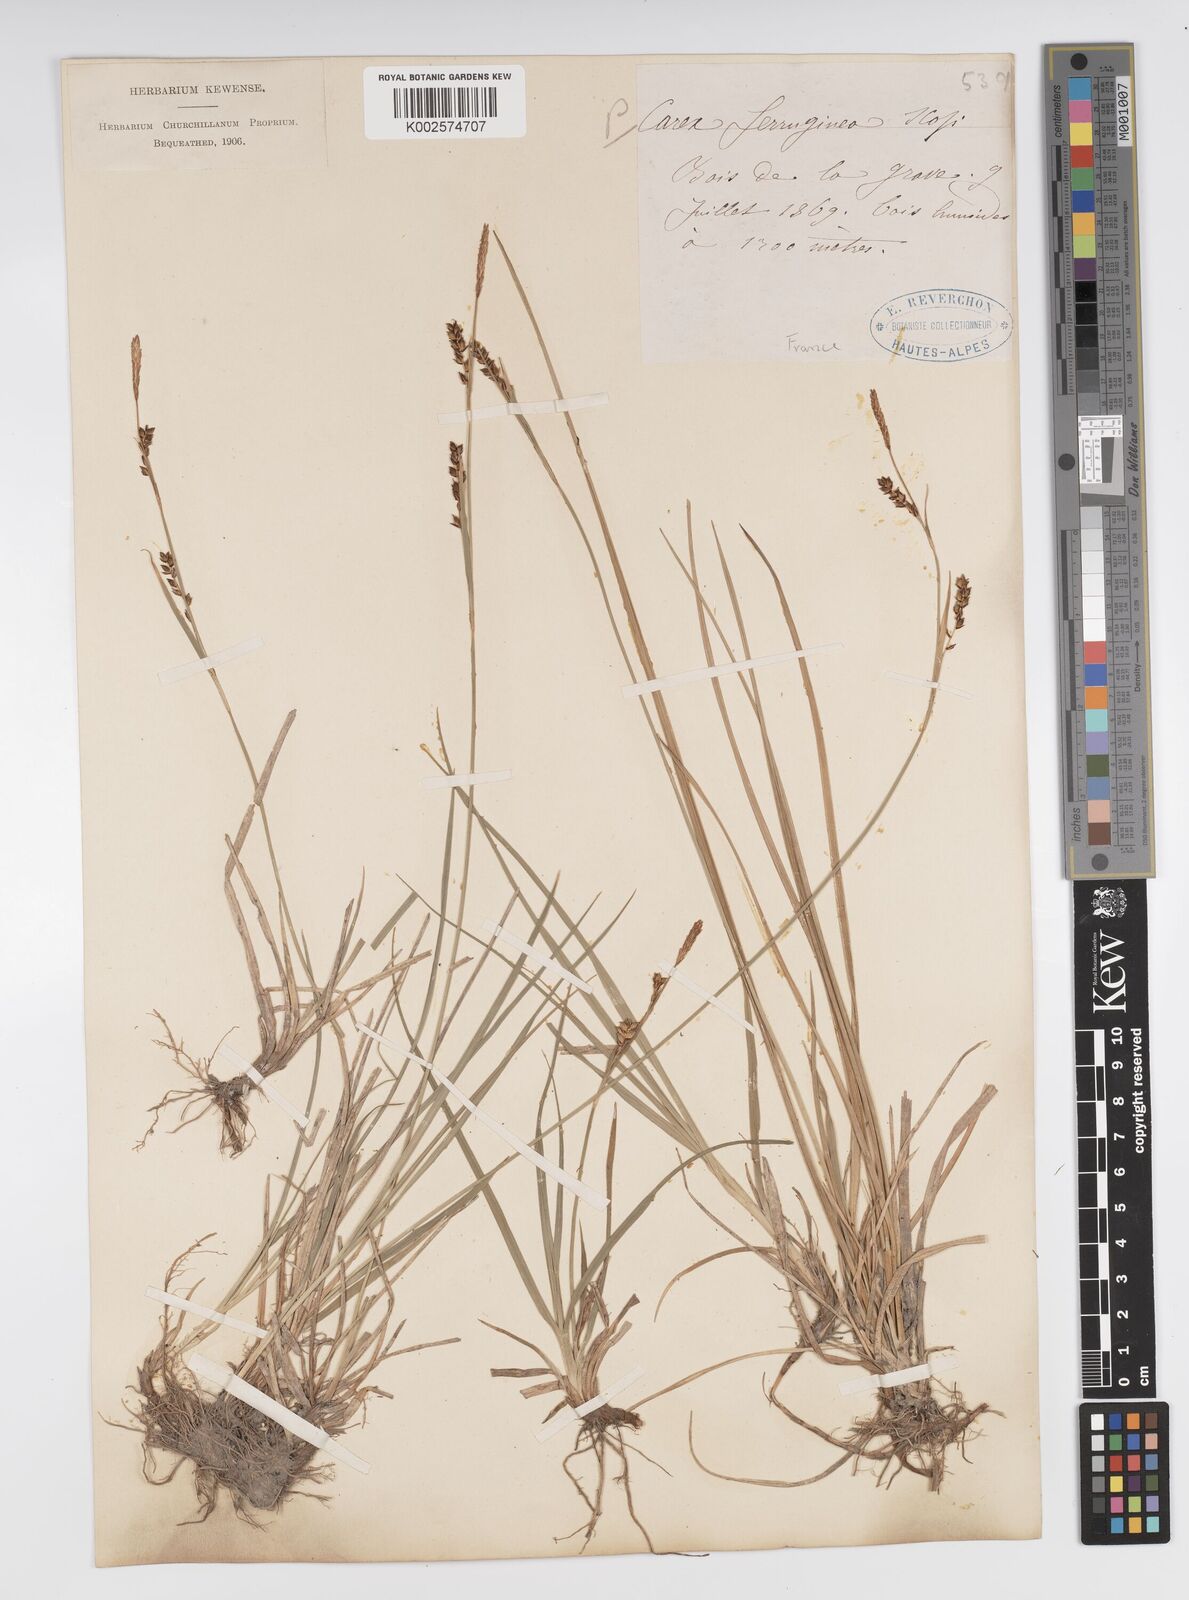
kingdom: Plantae
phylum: Tracheophyta
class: Liliopsida
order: Poales
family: Cyperaceae
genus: Carex
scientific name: Carex ferruginea
